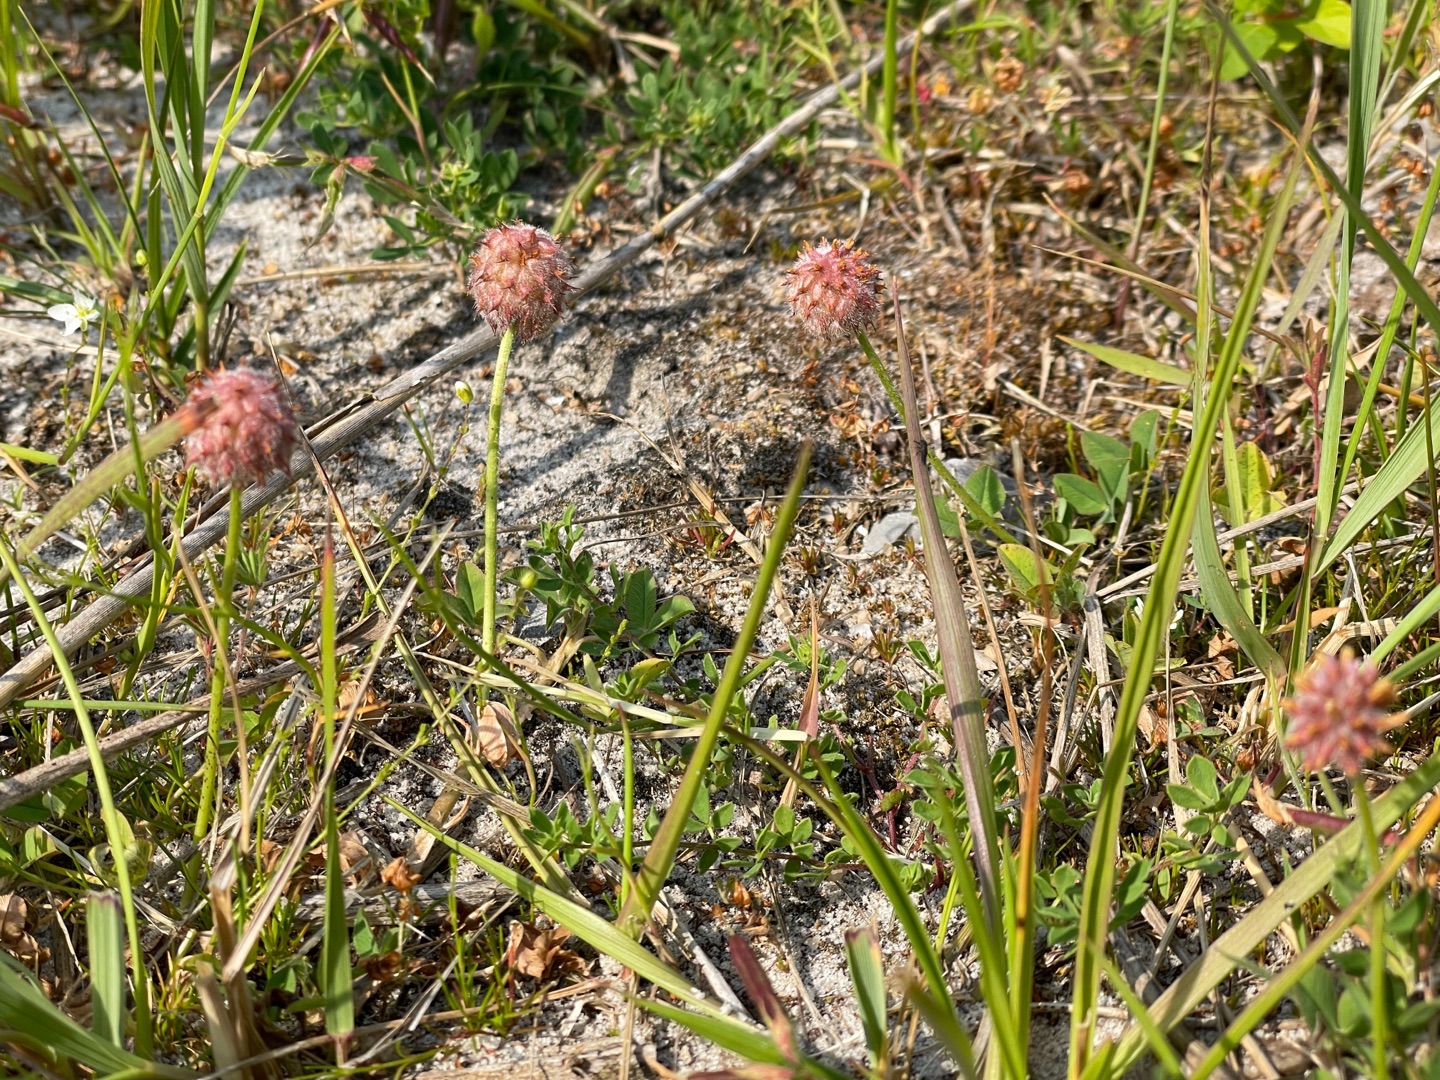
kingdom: Plantae
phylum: Tracheophyta
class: Magnoliopsida
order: Fabales
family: Fabaceae
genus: Trifolium
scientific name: Trifolium fragiferum
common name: Jordbær-kløver
